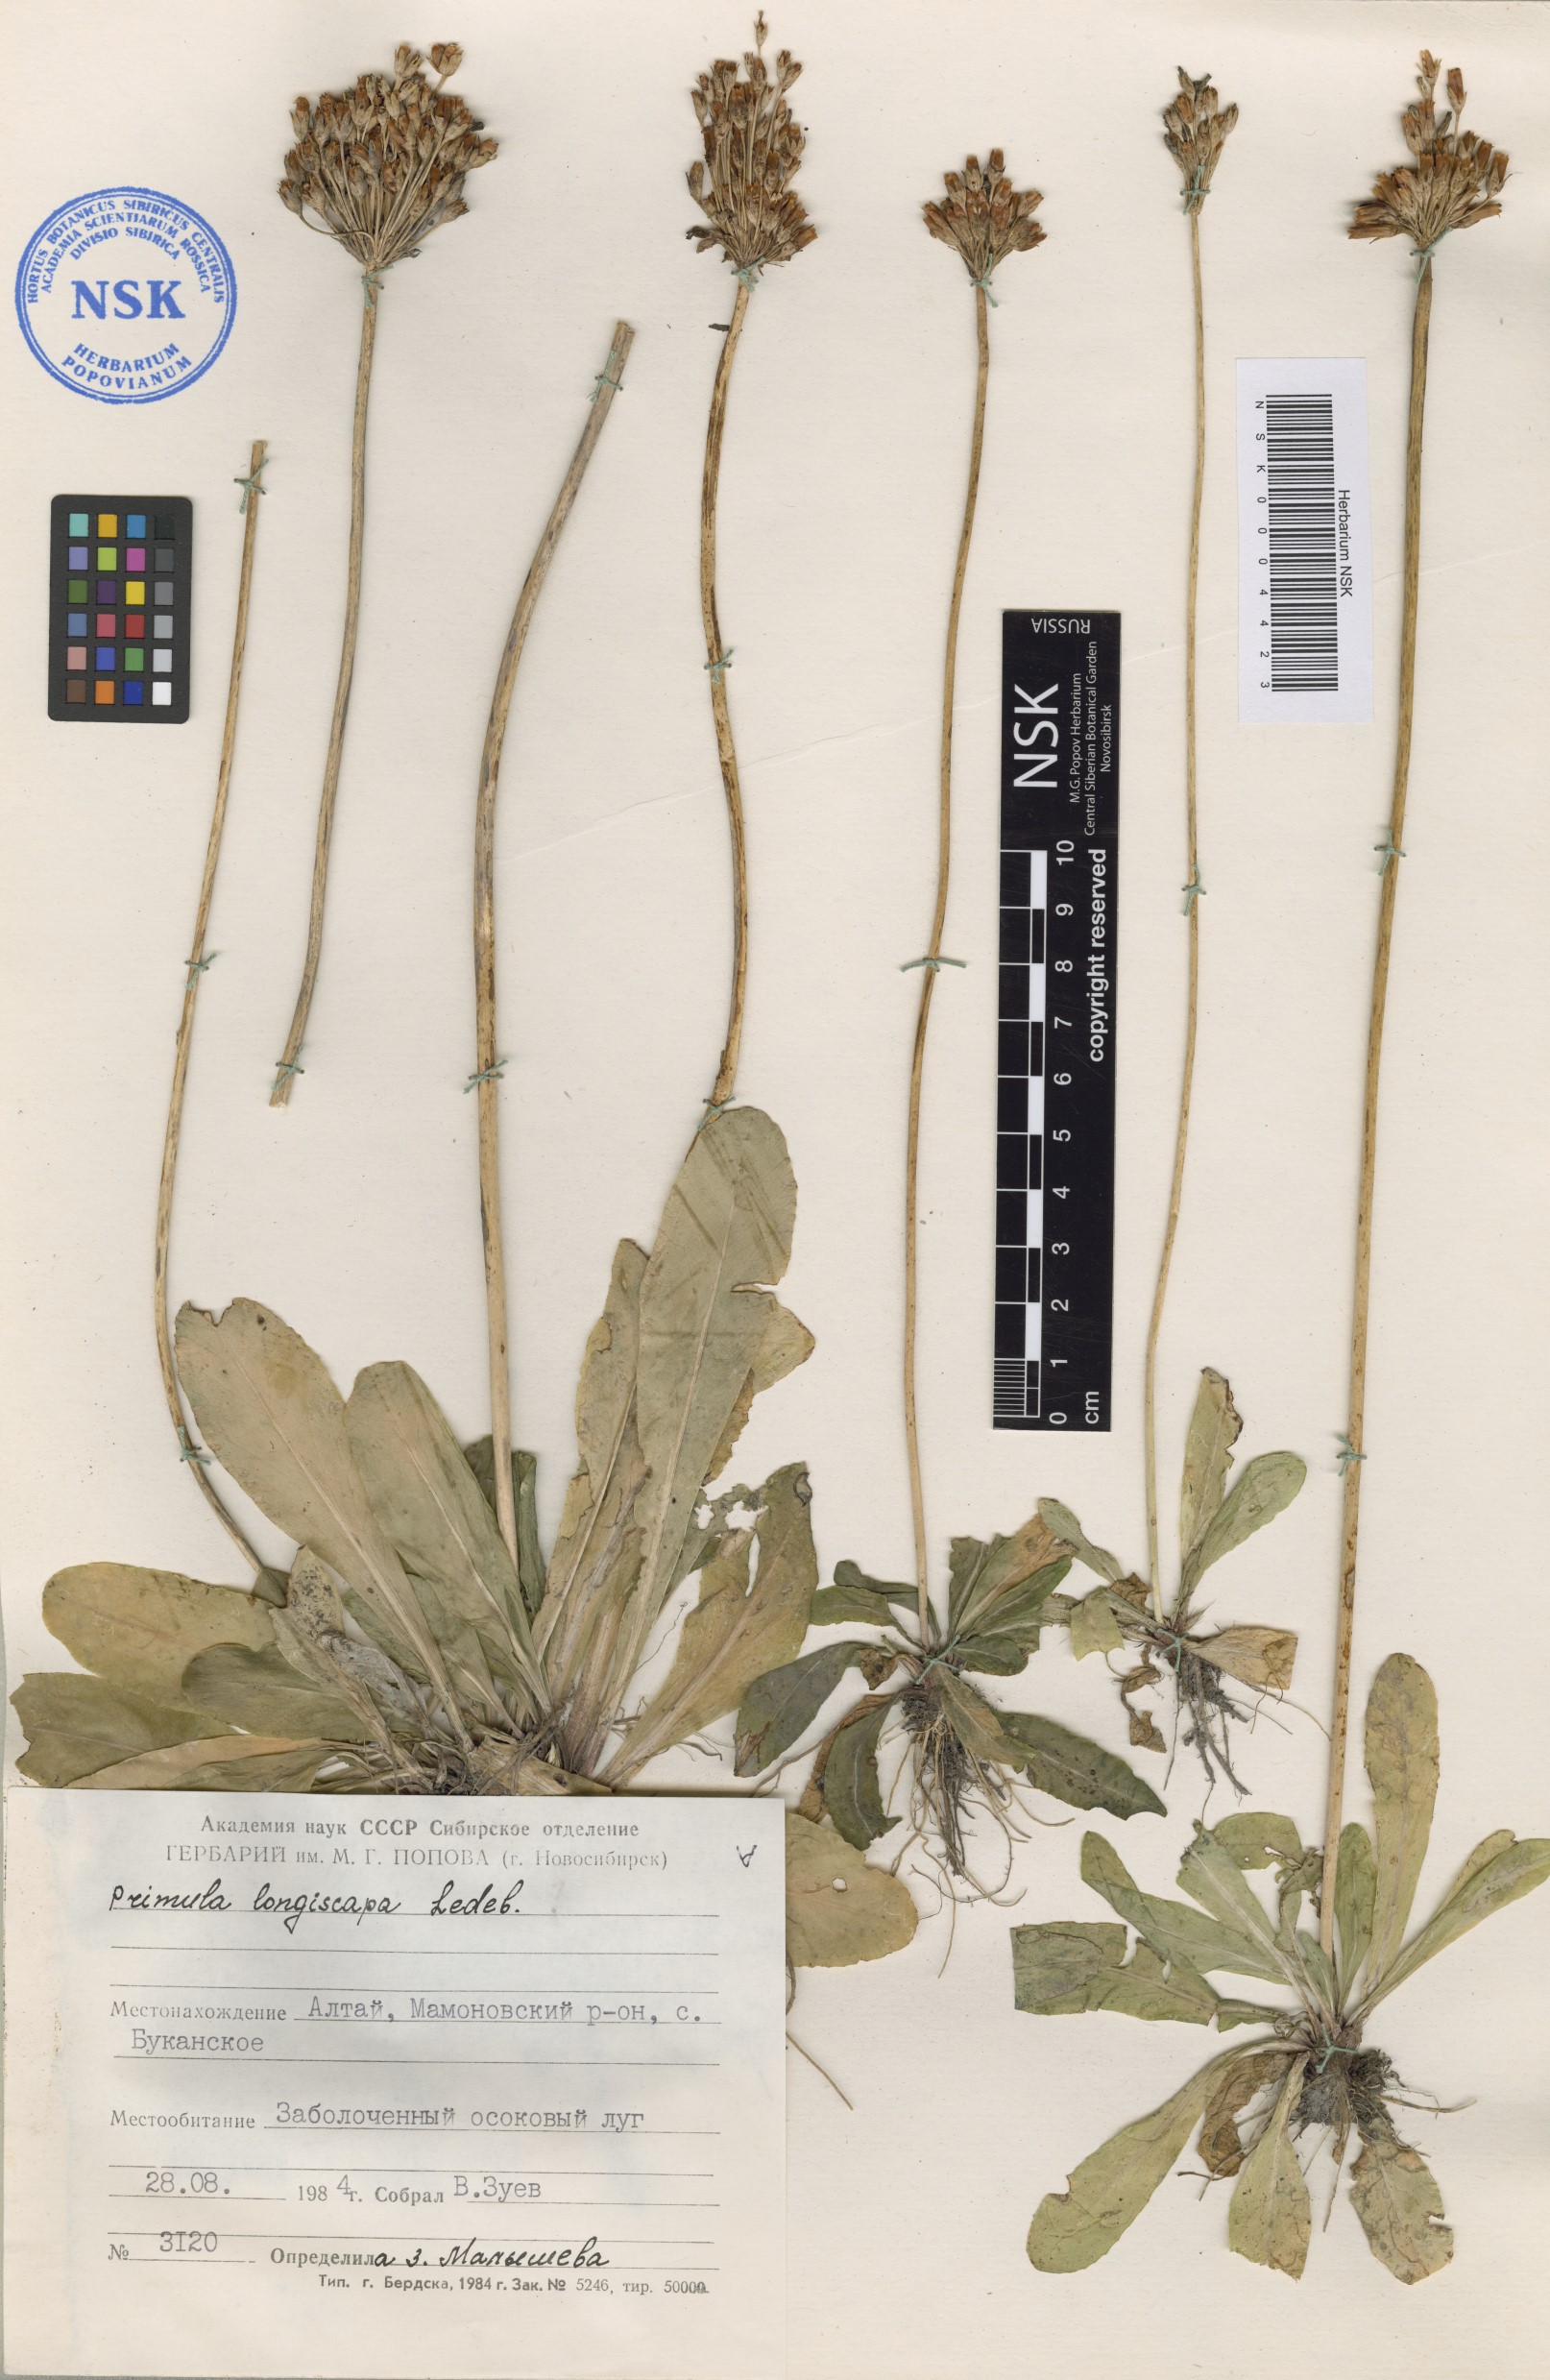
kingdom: Plantae
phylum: Tracheophyta
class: Magnoliopsida
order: Ericales
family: Primulaceae
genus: Primula
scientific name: Primula longiscapa
